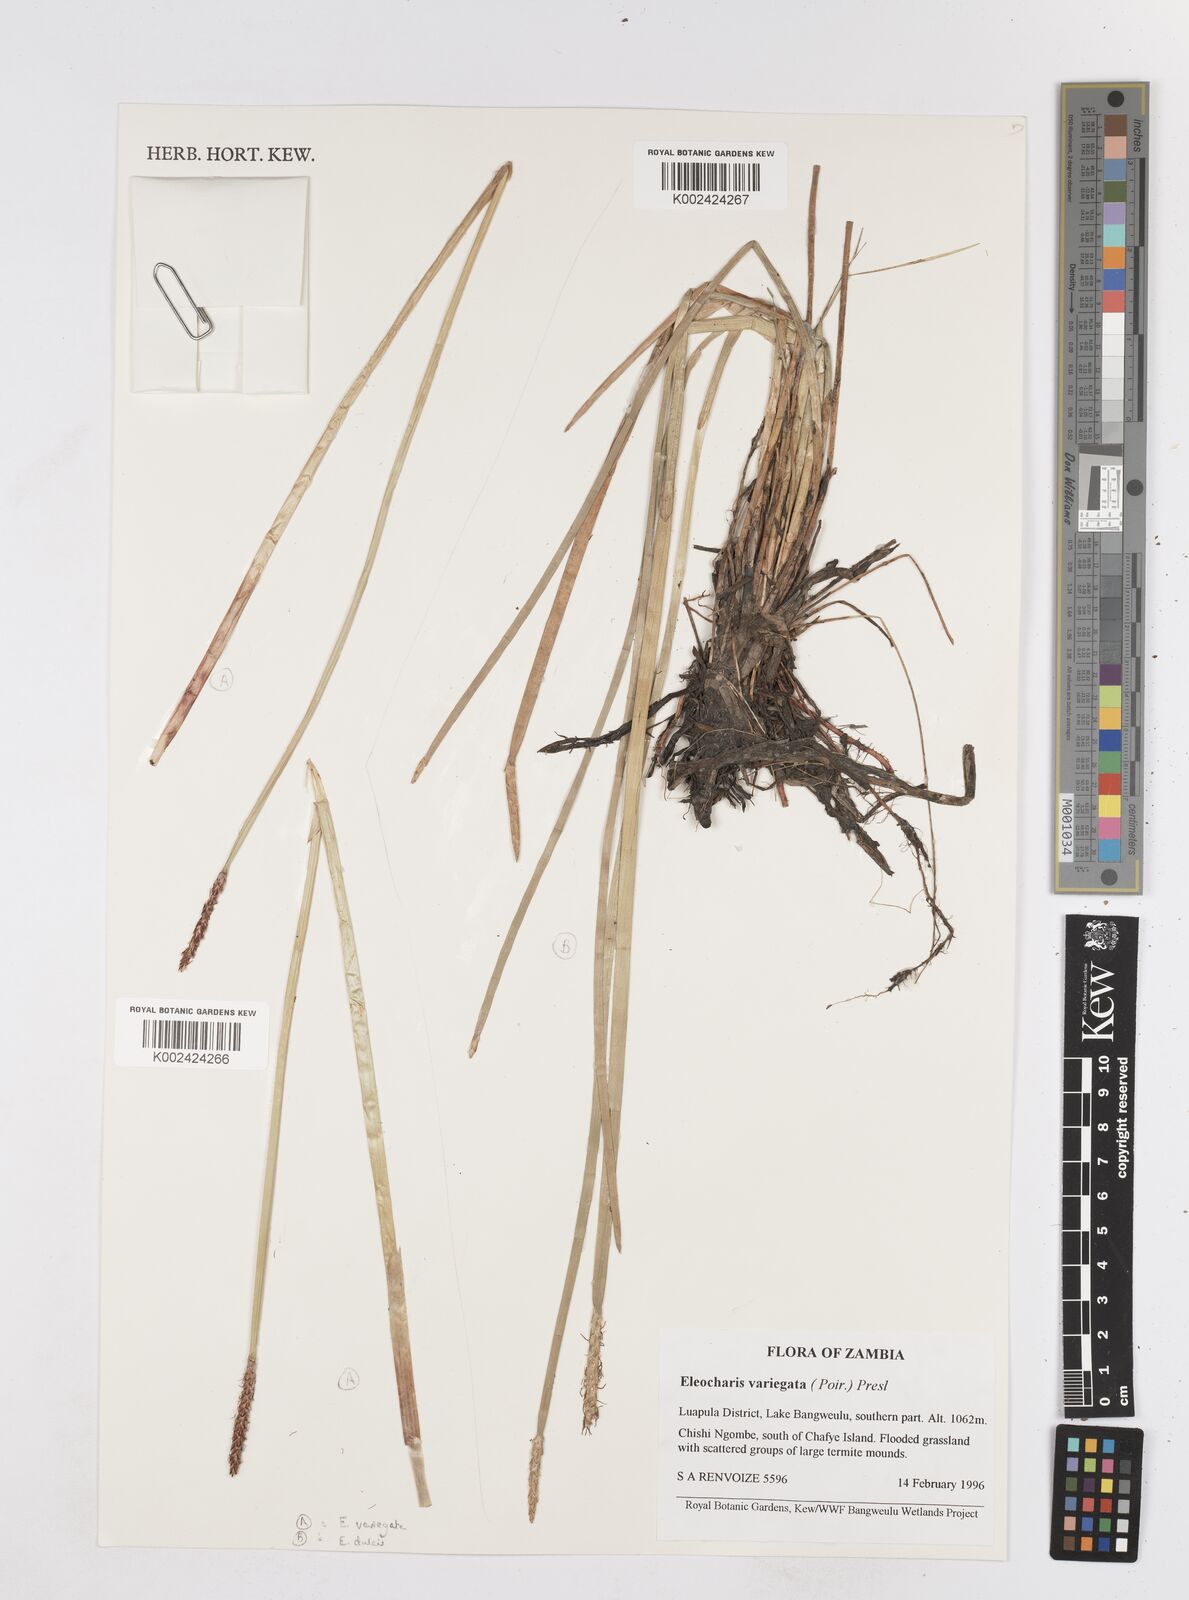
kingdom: Plantae
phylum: Tracheophyta
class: Liliopsida
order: Poales
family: Cyperaceae
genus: Eleocharis
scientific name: Eleocharis variegata
